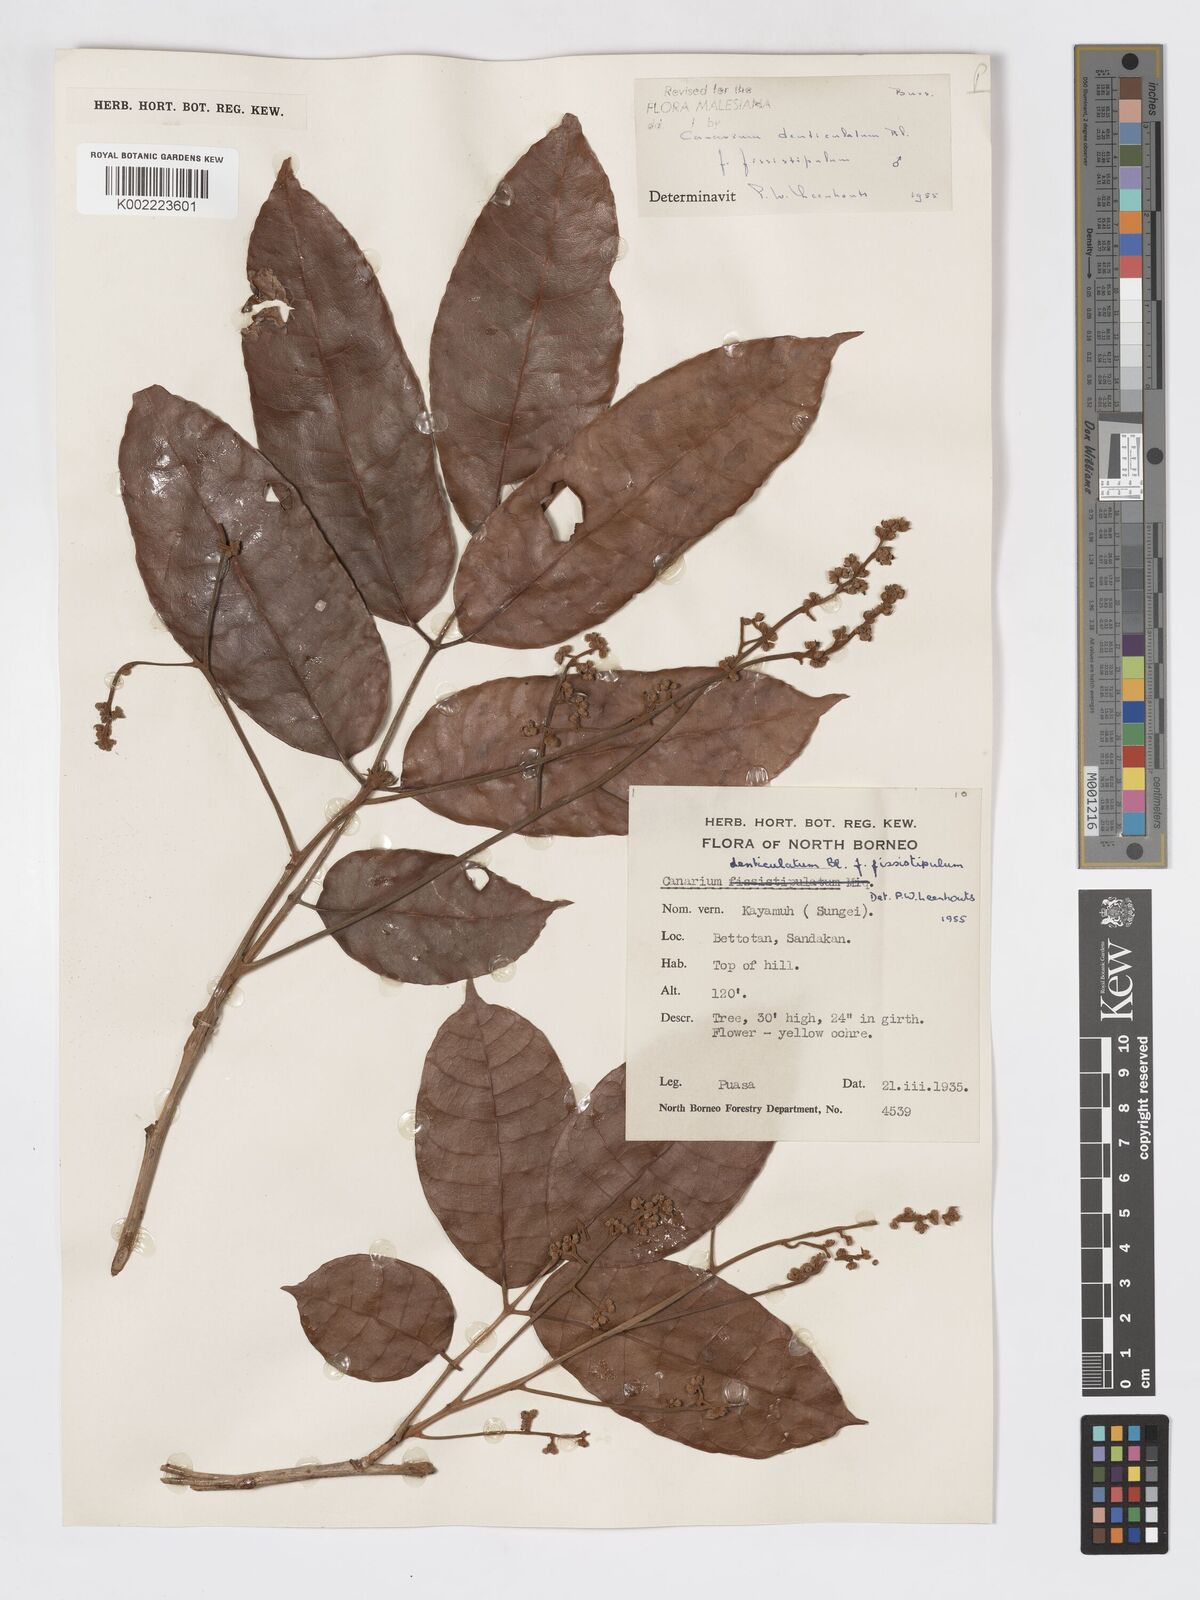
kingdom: Plantae
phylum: Tracheophyta
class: Magnoliopsida
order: Sapindales
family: Burseraceae
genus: Canarium
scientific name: Canarium denticulatum
